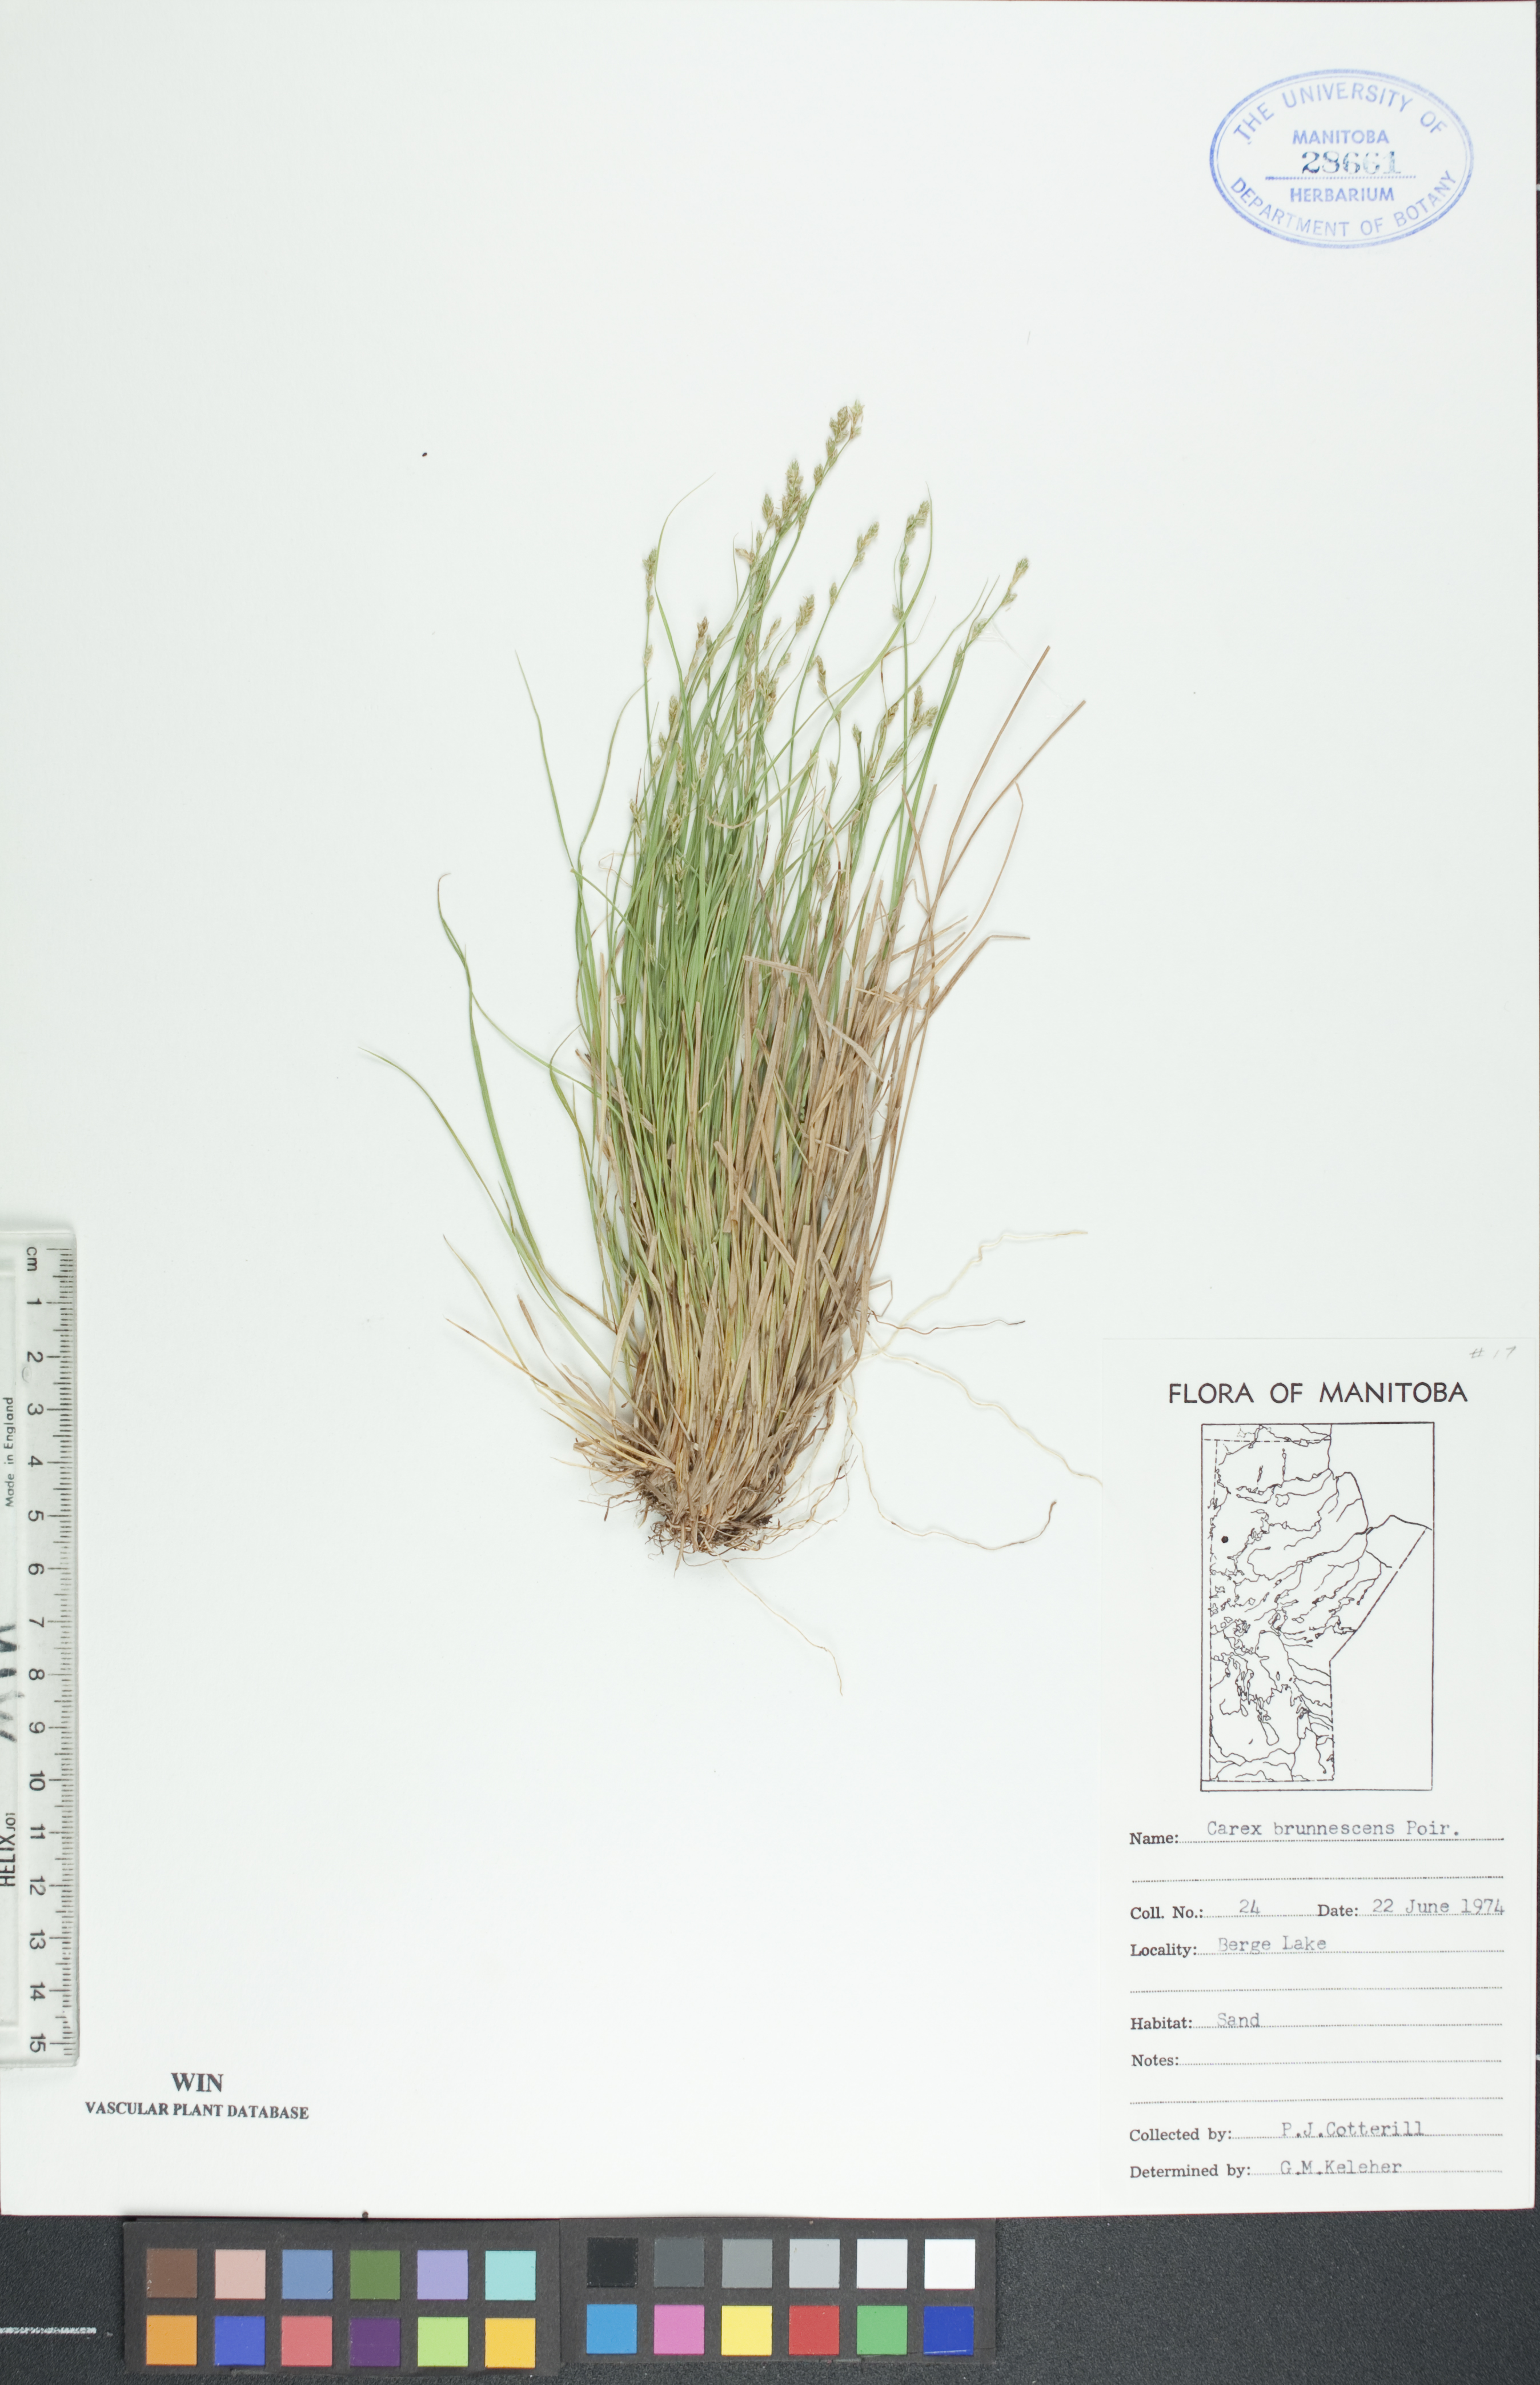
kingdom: Plantae
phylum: Tracheophyta
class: Liliopsida
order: Poales
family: Cyperaceae
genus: Carex
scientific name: Carex brunnescens
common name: Brown sedge
